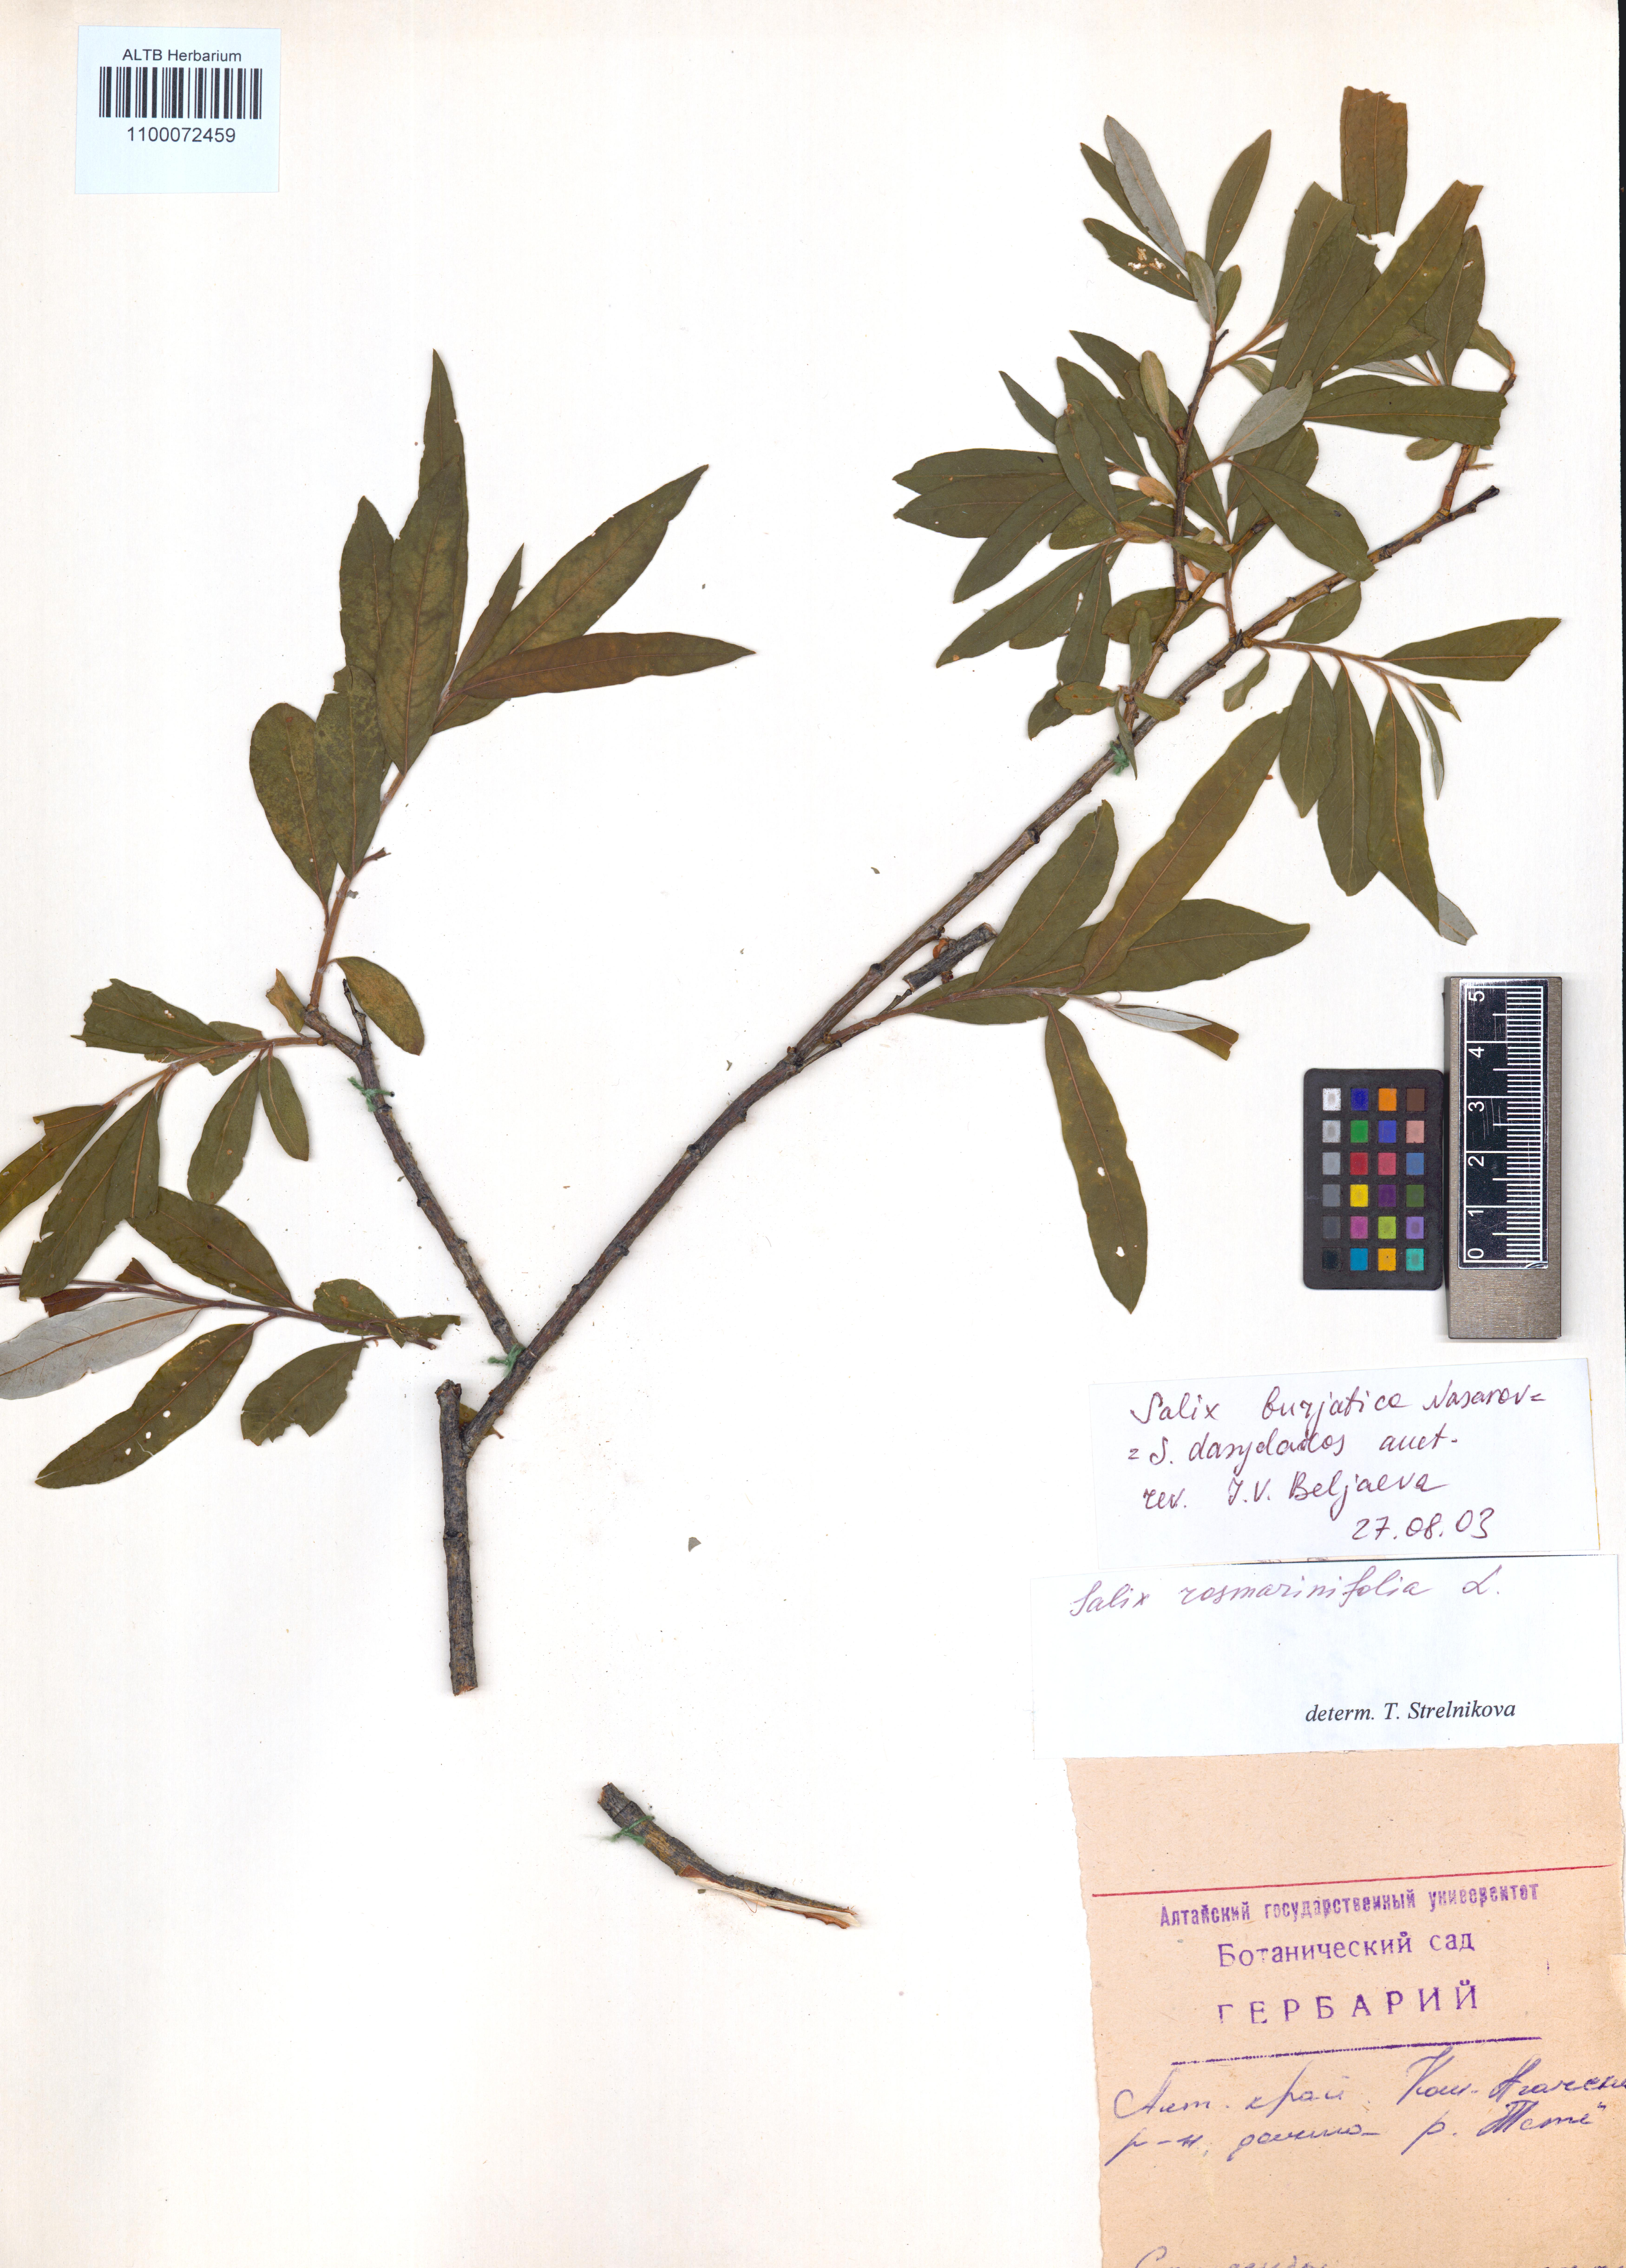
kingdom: Plantae
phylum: Tracheophyta
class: Magnoliopsida
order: Malpighiales
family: Salicaceae
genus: Salix
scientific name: Salix gmelinii
